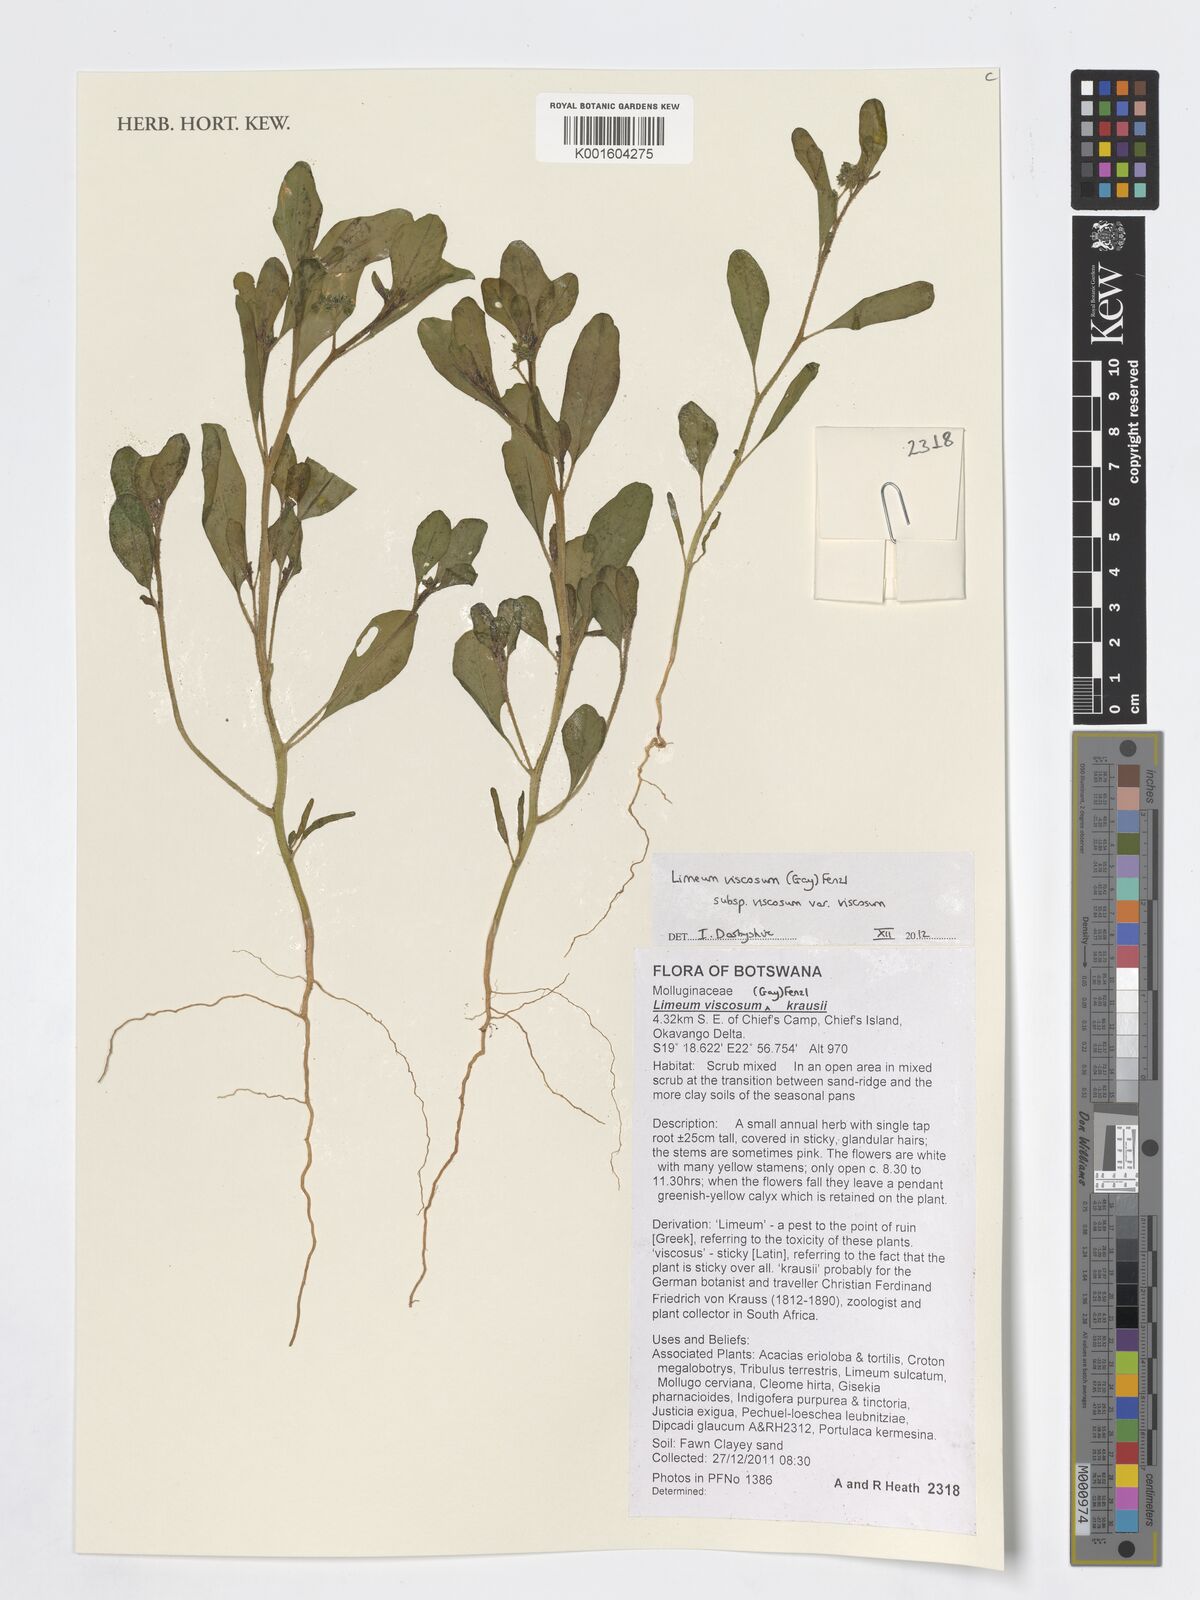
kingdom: Plantae
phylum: Tracheophyta
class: Magnoliopsida
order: Caryophyllales
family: Limeaceae
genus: Limeum
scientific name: Limeum viscosum
